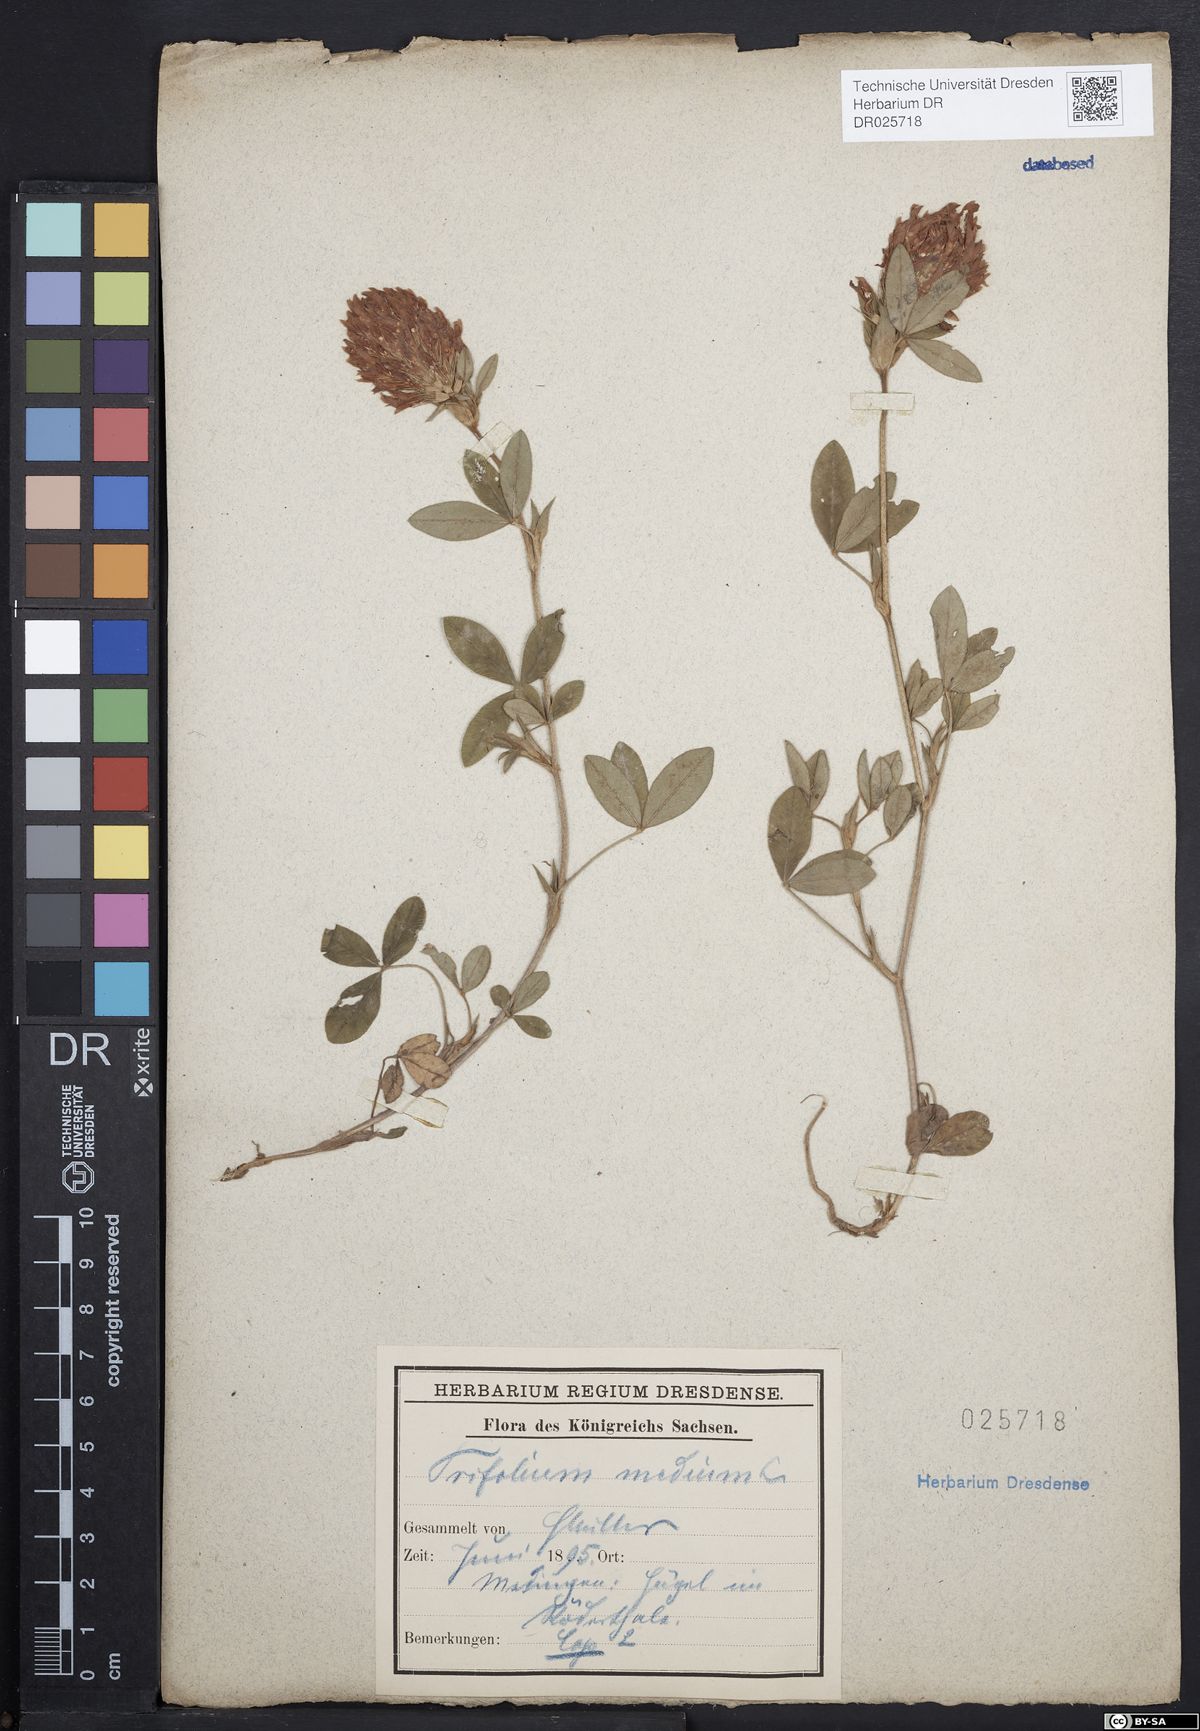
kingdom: Plantae
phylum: Tracheophyta
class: Magnoliopsida
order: Fabales
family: Fabaceae
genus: Trifolium
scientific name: Trifolium medium
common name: Zigzag clover
